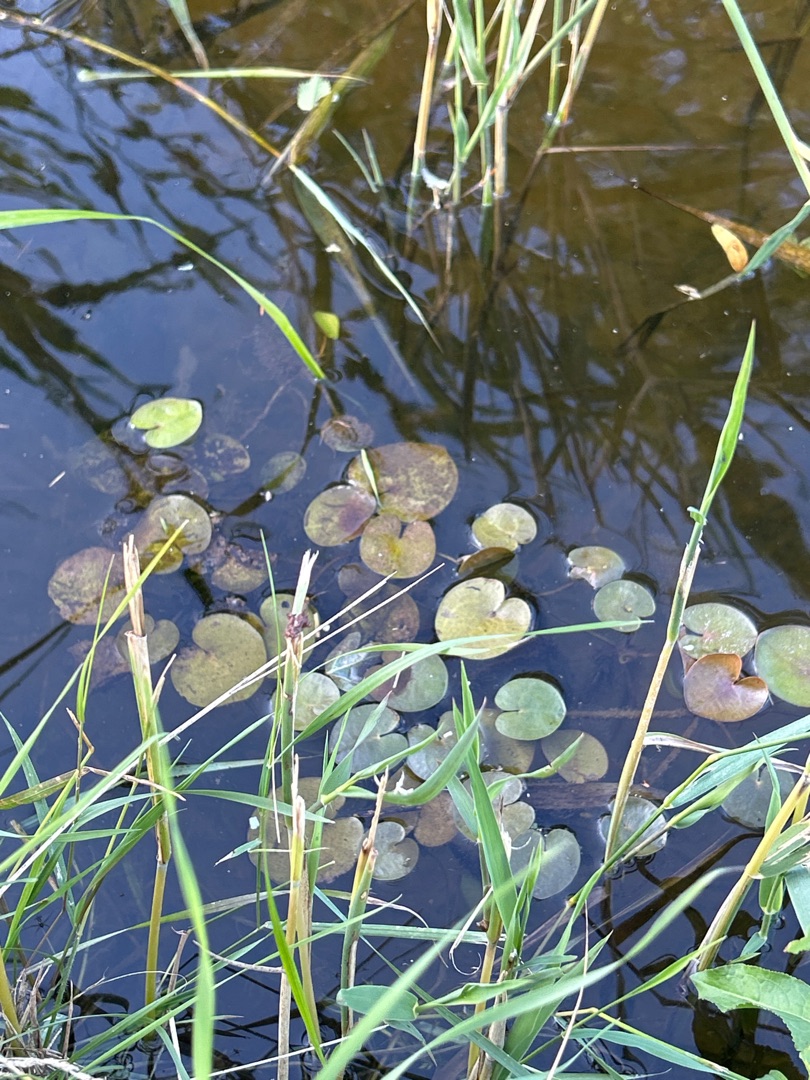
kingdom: Plantae
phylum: Tracheophyta
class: Liliopsida
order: Alismatales
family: Hydrocharitaceae
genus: Hydrocharis
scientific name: Hydrocharis morsus-ranae
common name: Frøbid
